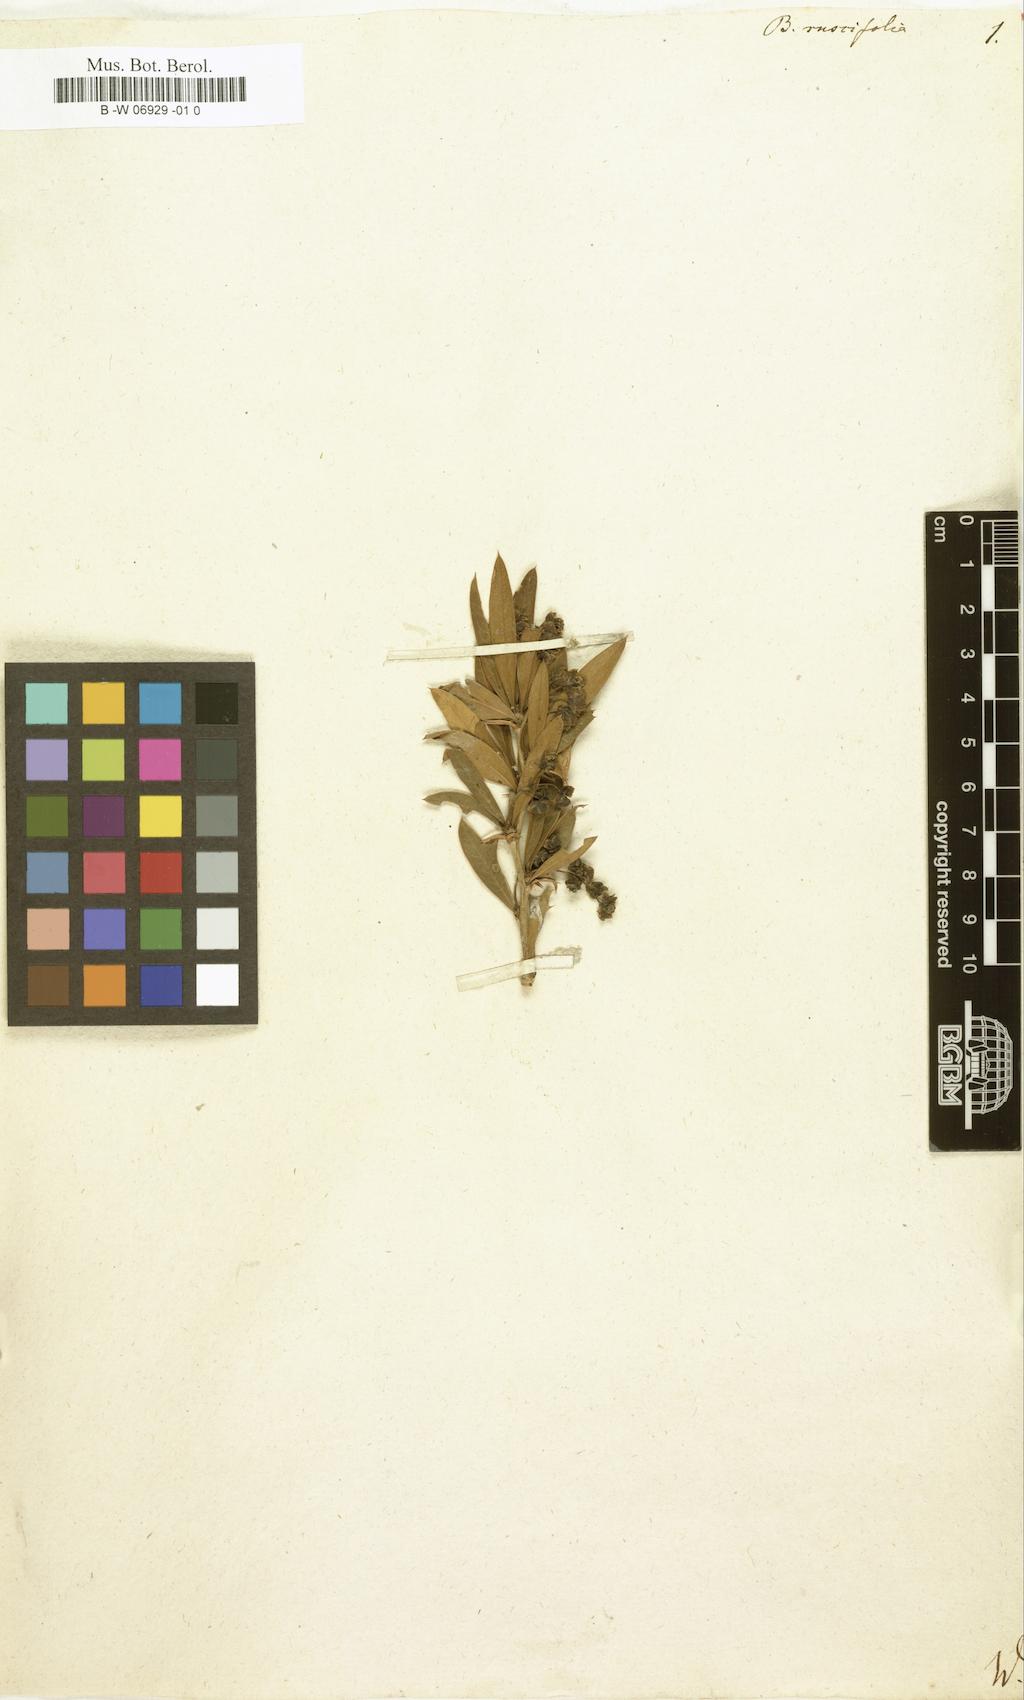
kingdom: Plantae
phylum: Tracheophyta
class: Magnoliopsida
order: Ranunculales
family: Berberidaceae
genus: Berberis
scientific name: Berberis ruscifolia
